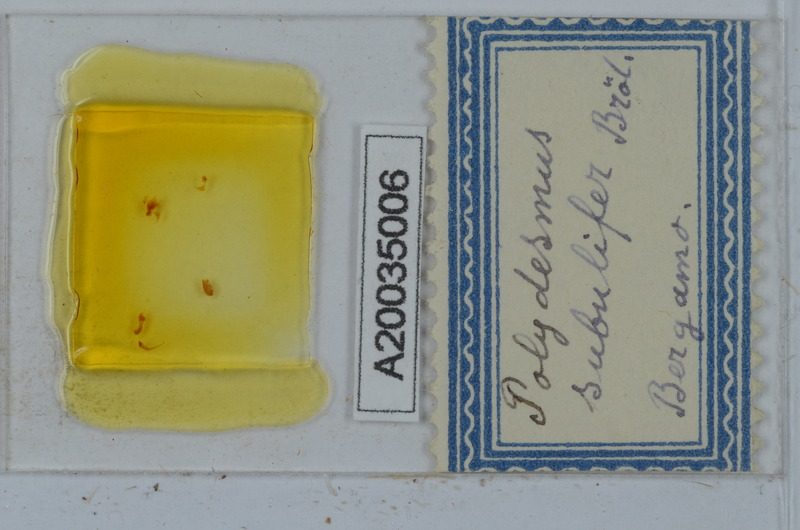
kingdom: Animalia
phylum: Arthropoda
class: Diplopoda
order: Polydesmida
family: Polydesmidae
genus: Polydesmus
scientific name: Polydesmus subulifer
